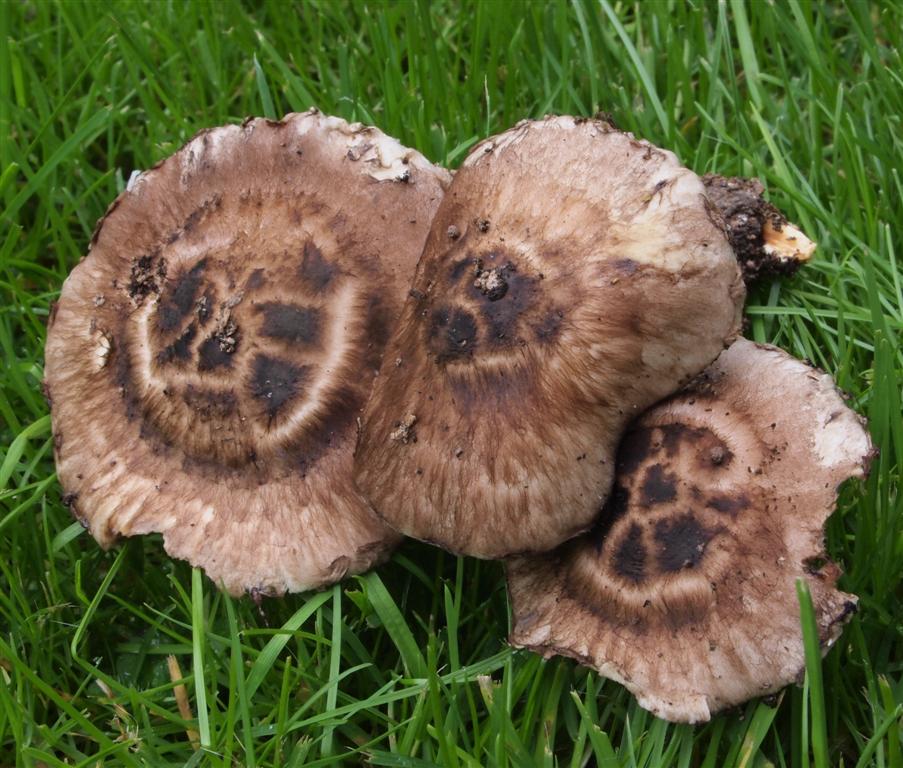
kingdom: Fungi
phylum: Basidiomycota
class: Agaricomycetes
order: Agaricales
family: Psathyrellaceae
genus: Psathyrella
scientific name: Psathyrella maculata
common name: sortskællet mørkhat
